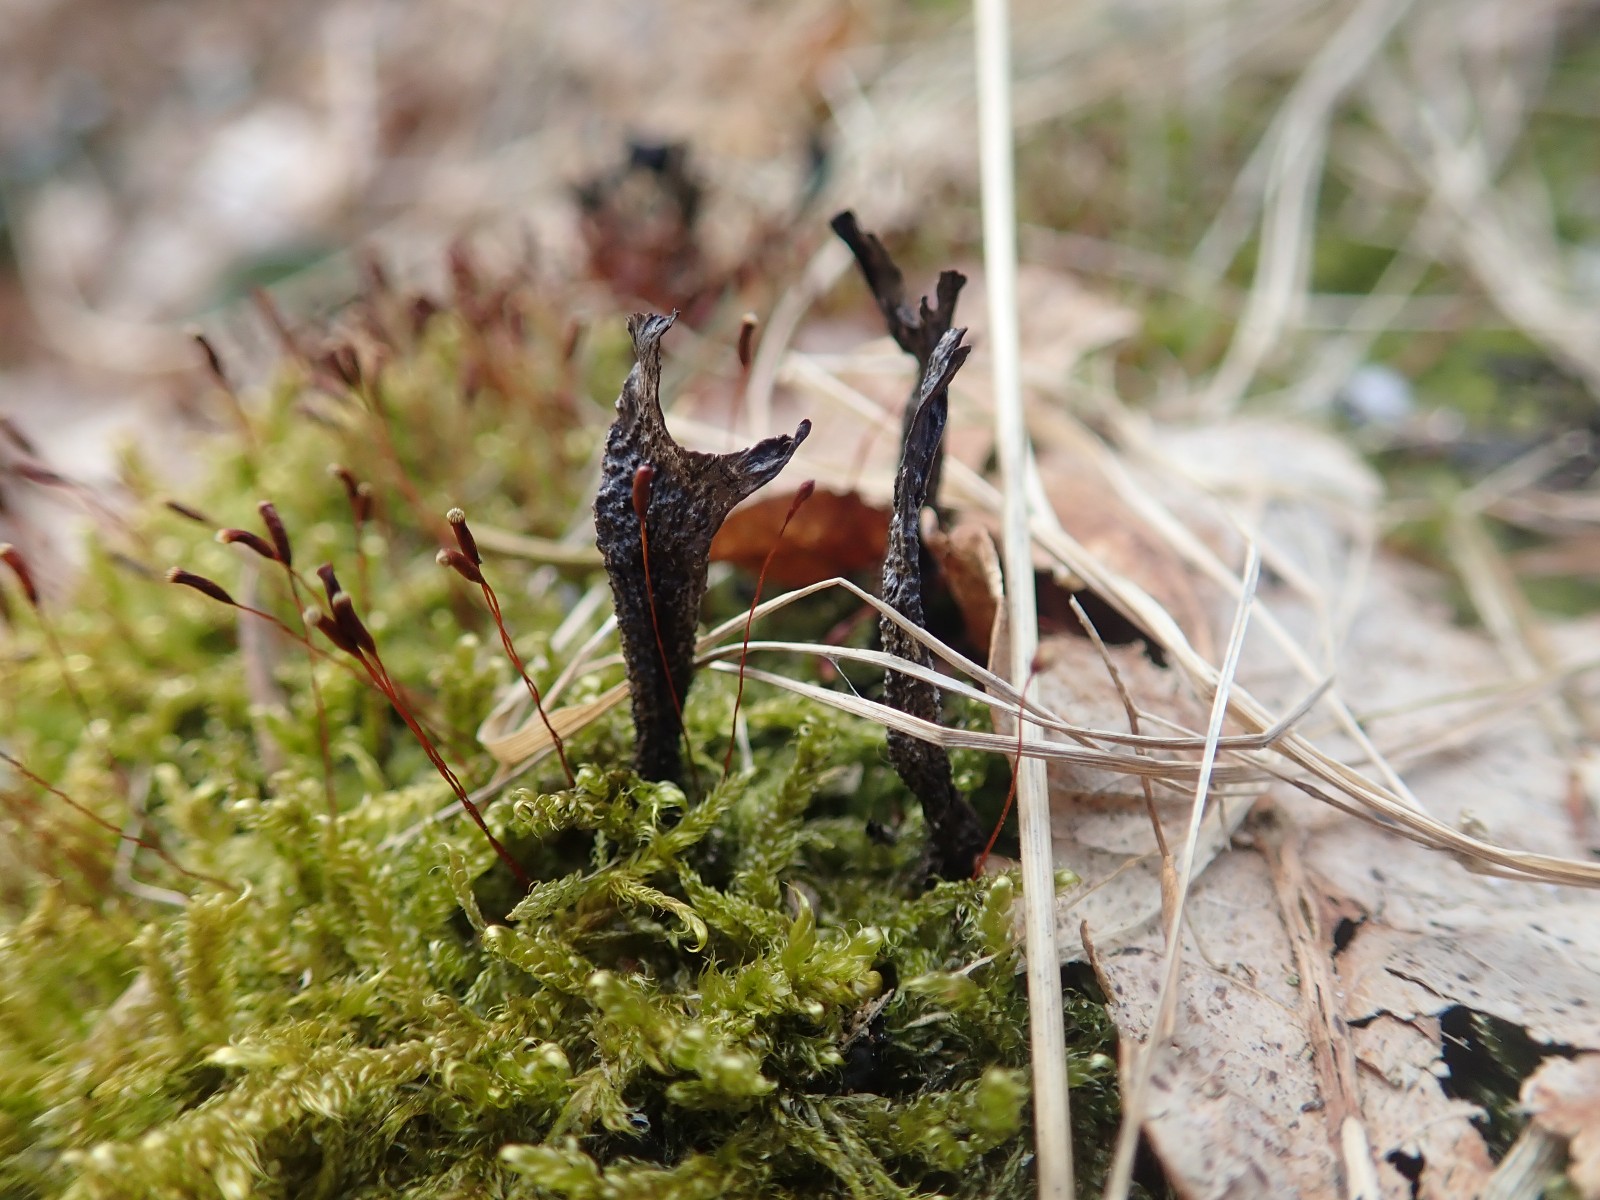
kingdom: Fungi
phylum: Ascomycota
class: Sordariomycetes
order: Xylariales
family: Xylariaceae
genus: Xylaria
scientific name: Xylaria hypoxylon
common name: grenet stødsvamp
